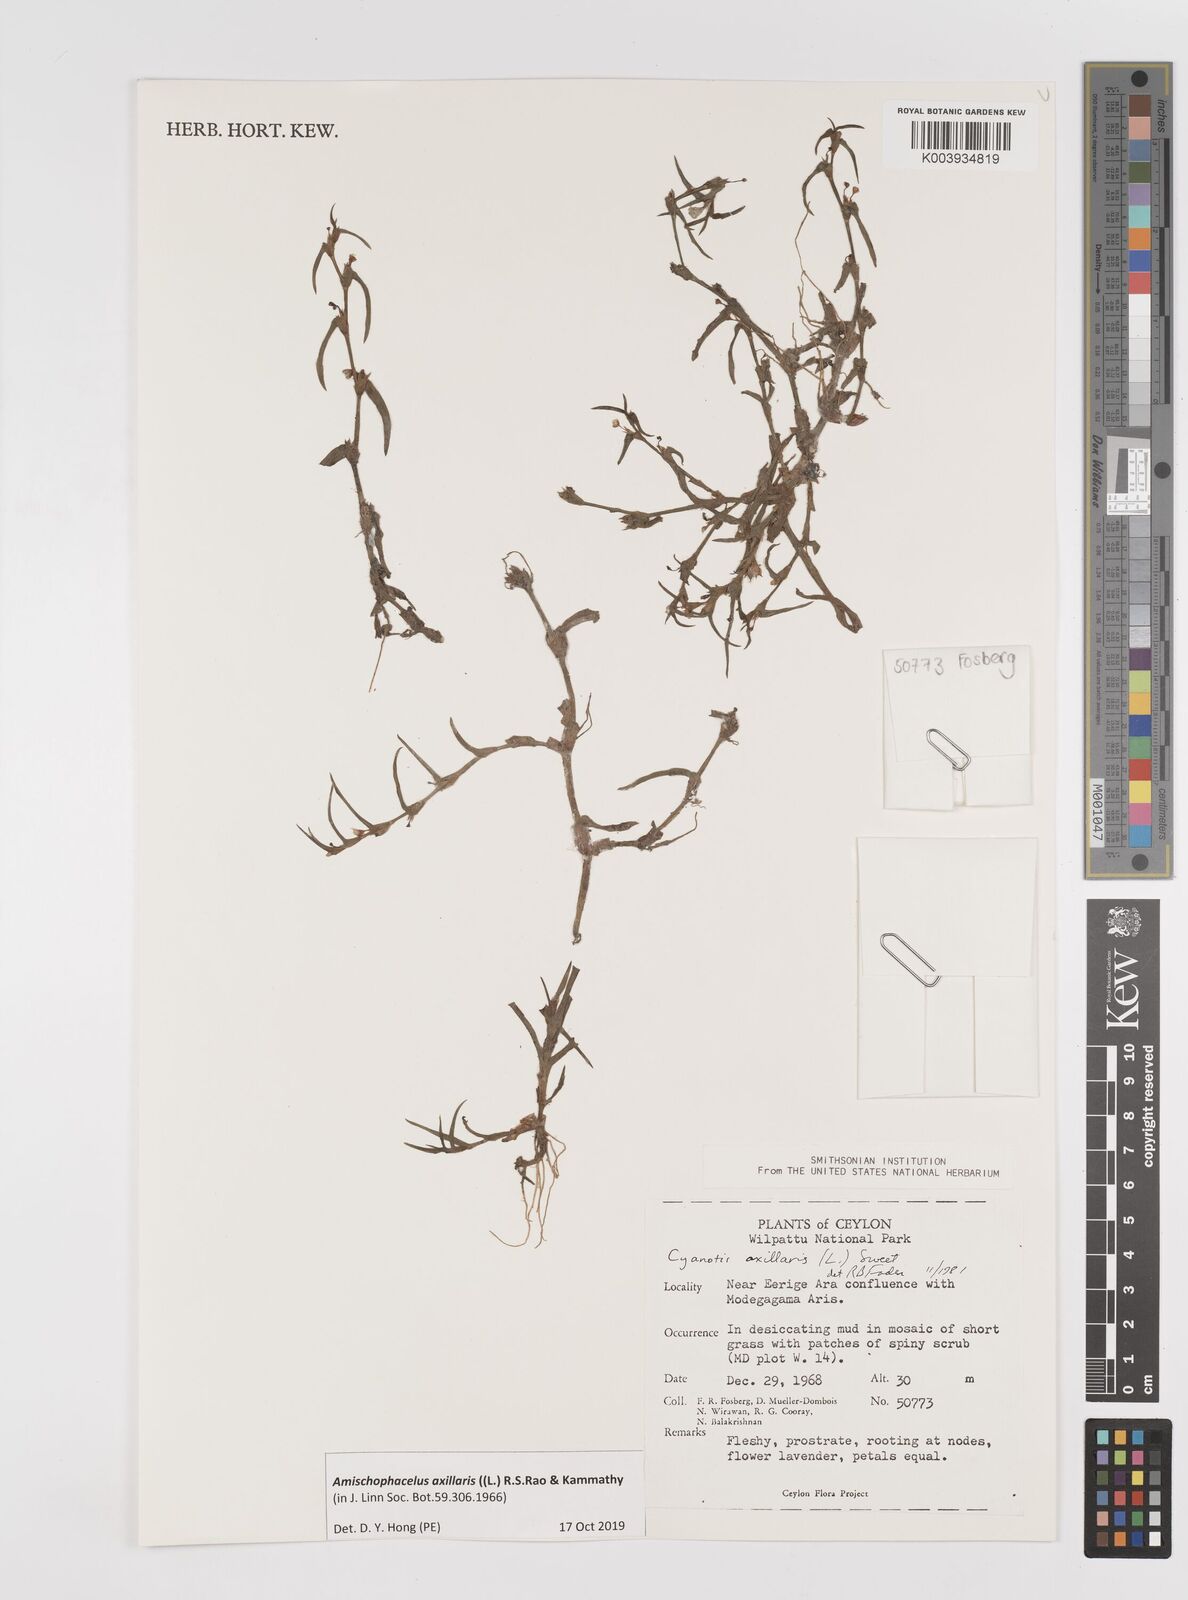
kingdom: Plantae
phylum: Tracheophyta
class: Liliopsida
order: Commelinales
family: Commelinaceae
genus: Cyanotis
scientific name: Cyanotis axillaris
